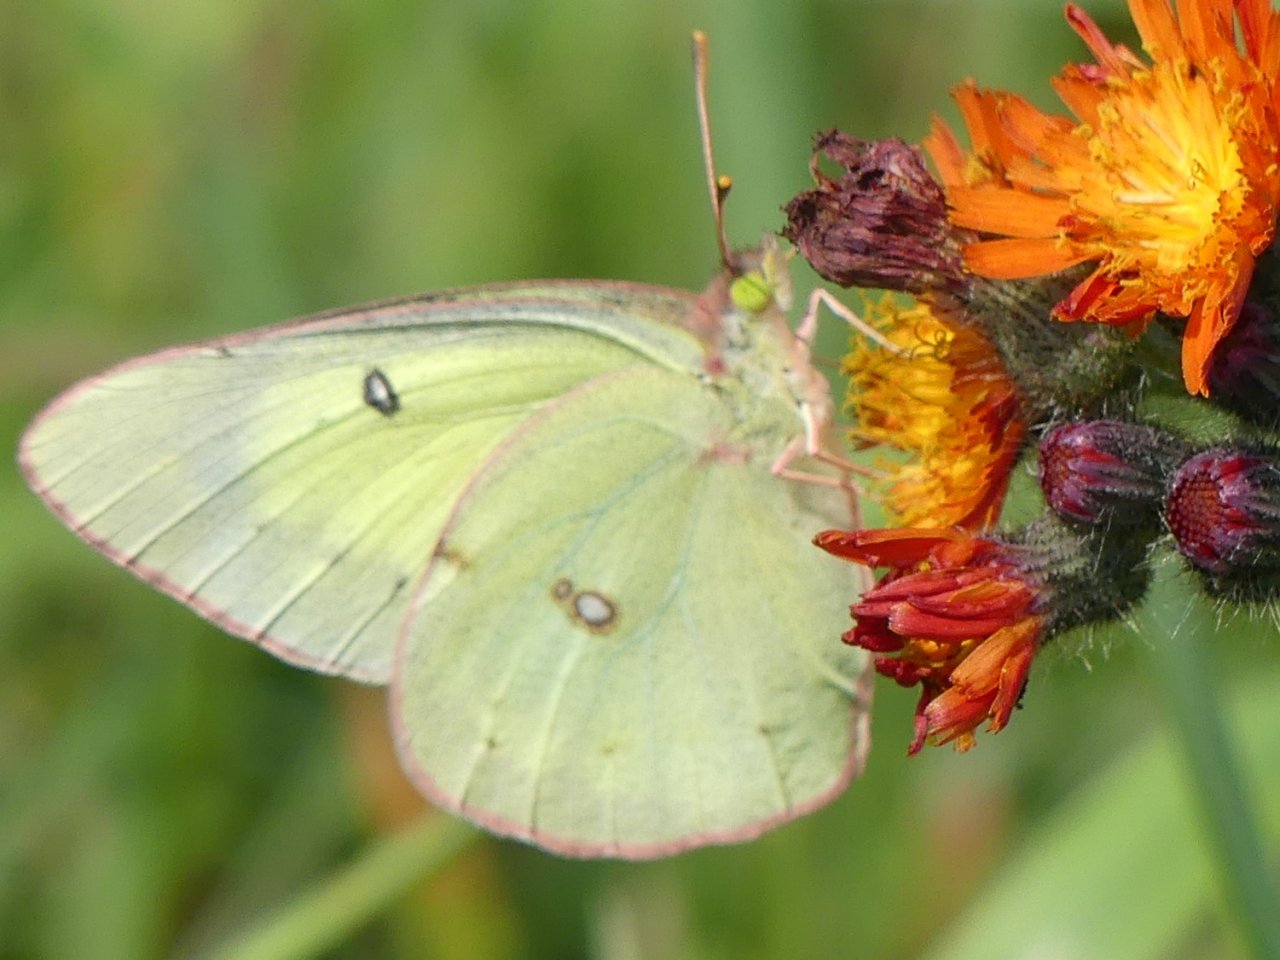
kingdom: Animalia
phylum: Arthropoda
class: Insecta
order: Lepidoptera
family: Pieridae
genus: Colias
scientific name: Colias philodice
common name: Clouded Sulphur
